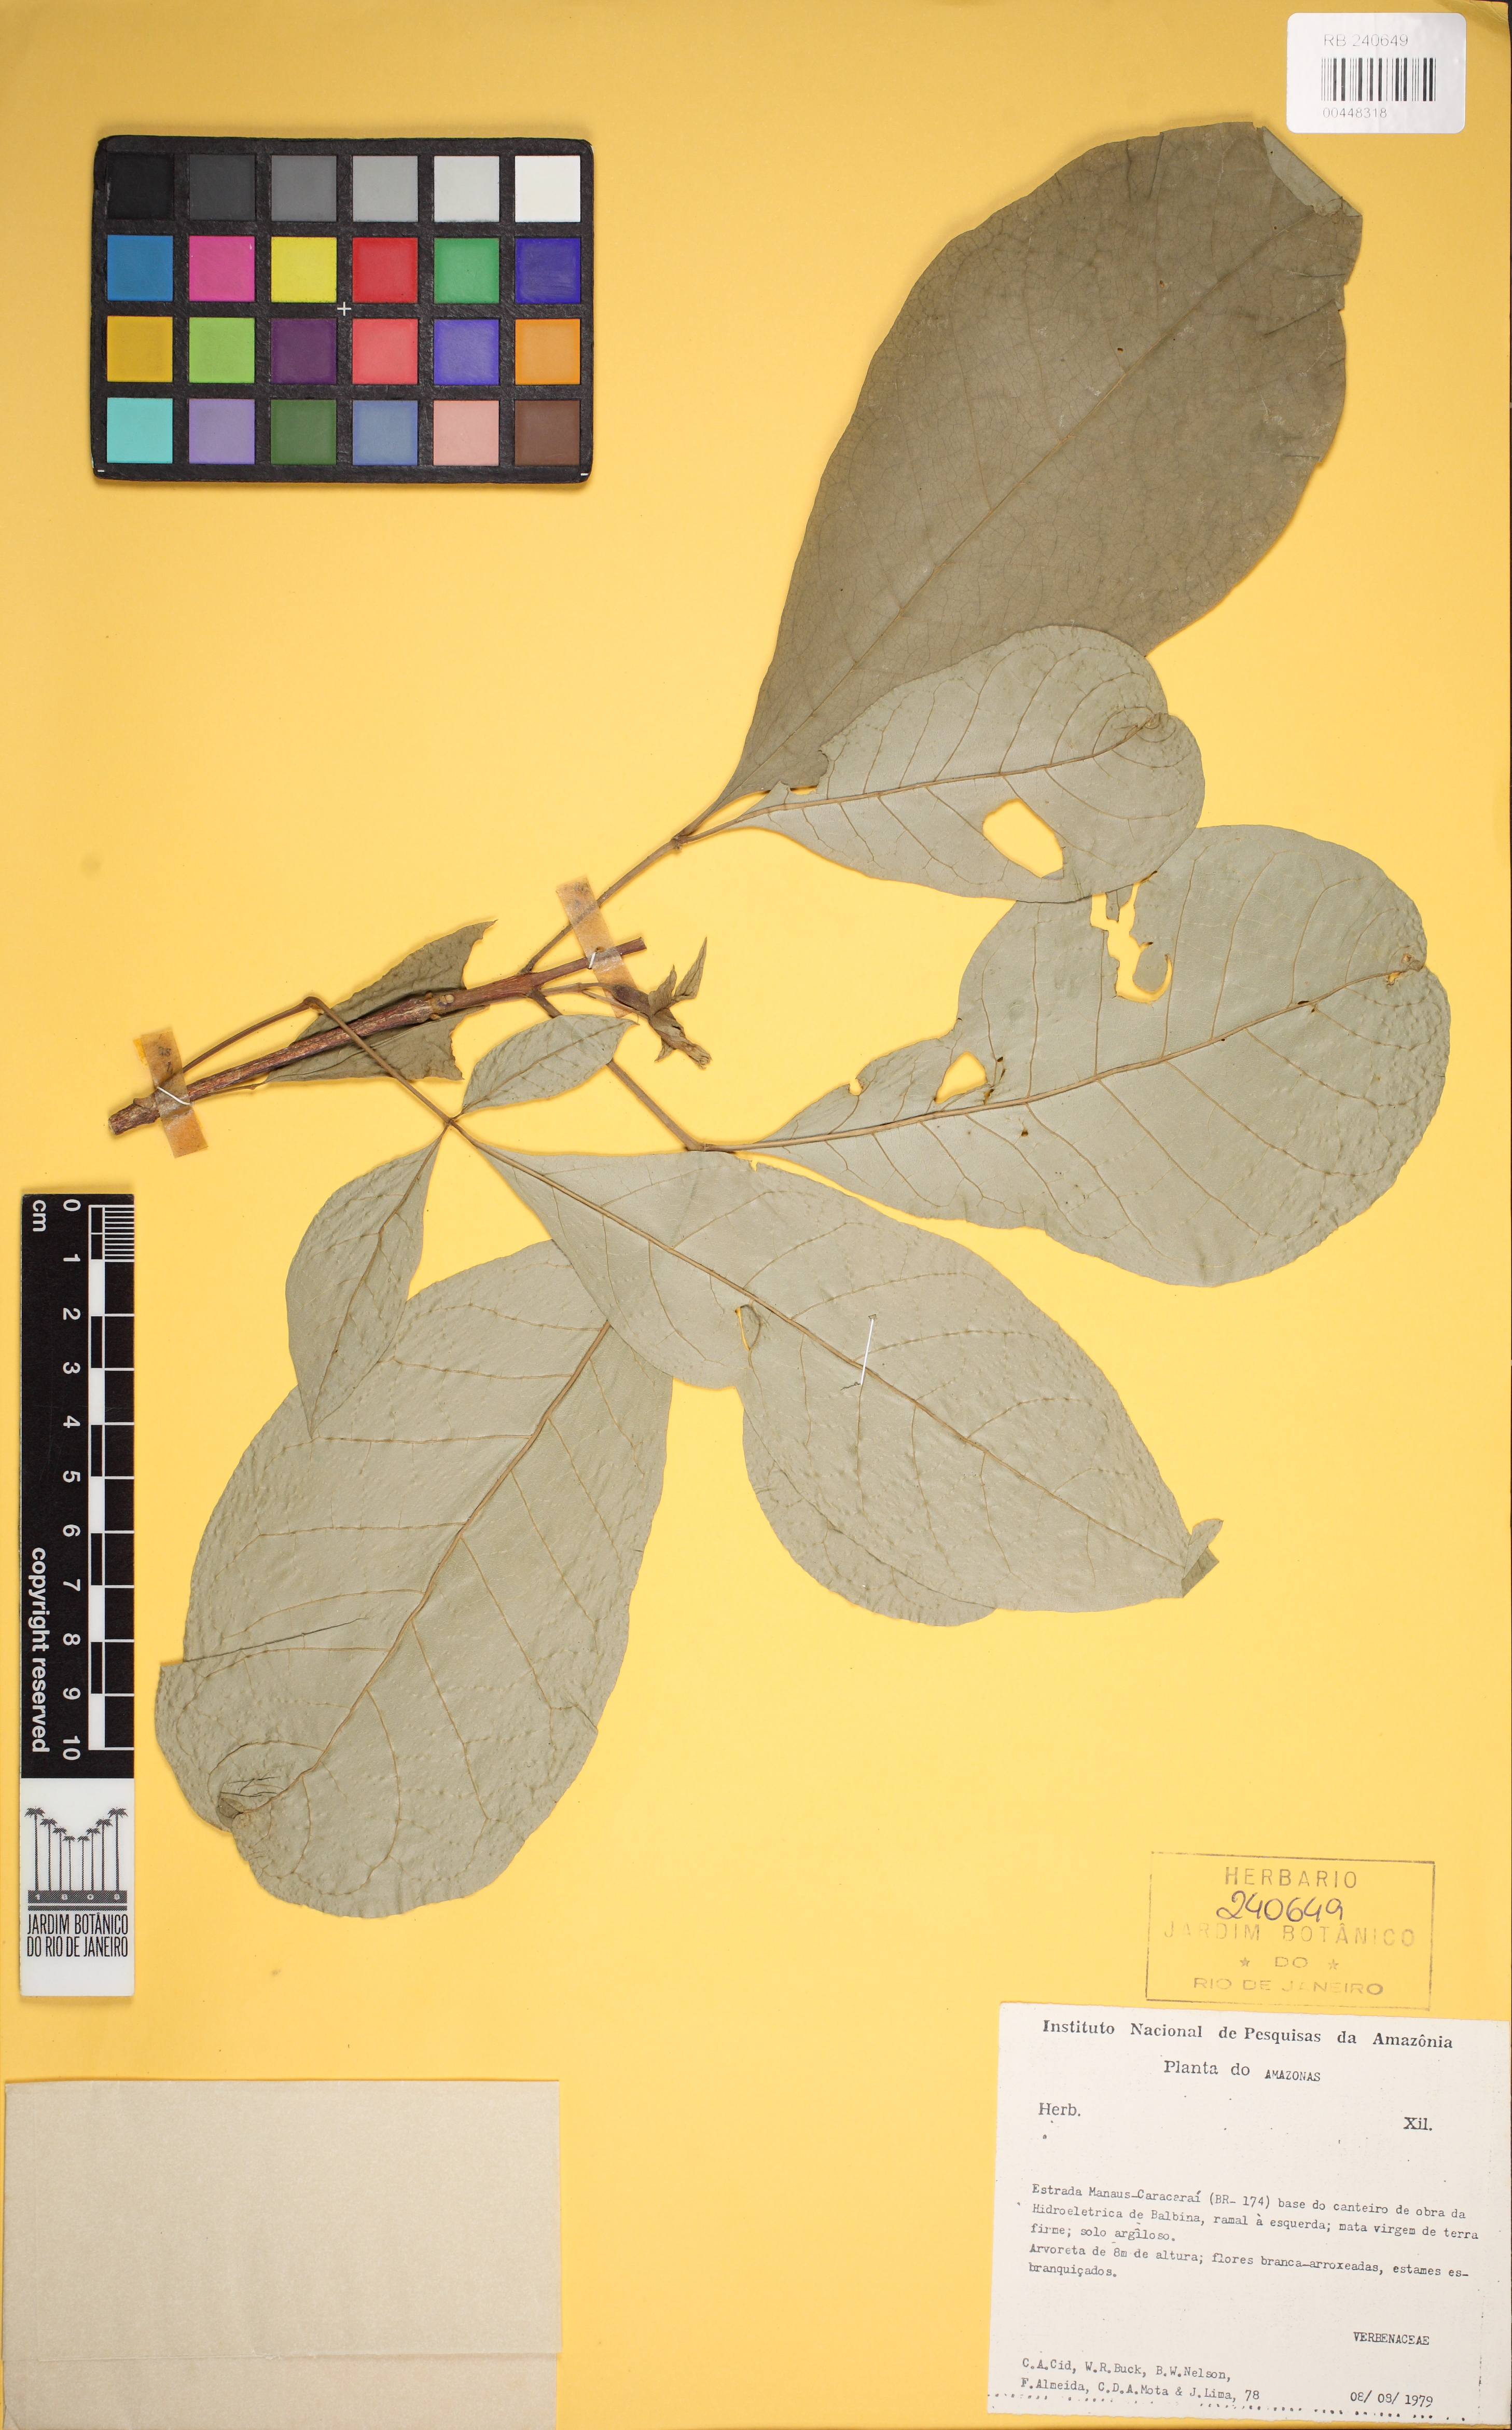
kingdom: Plantae
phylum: Tracheophyta
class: Magnoliopsida
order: Lamiales
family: Verbenaceae
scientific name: Verbenaceae
